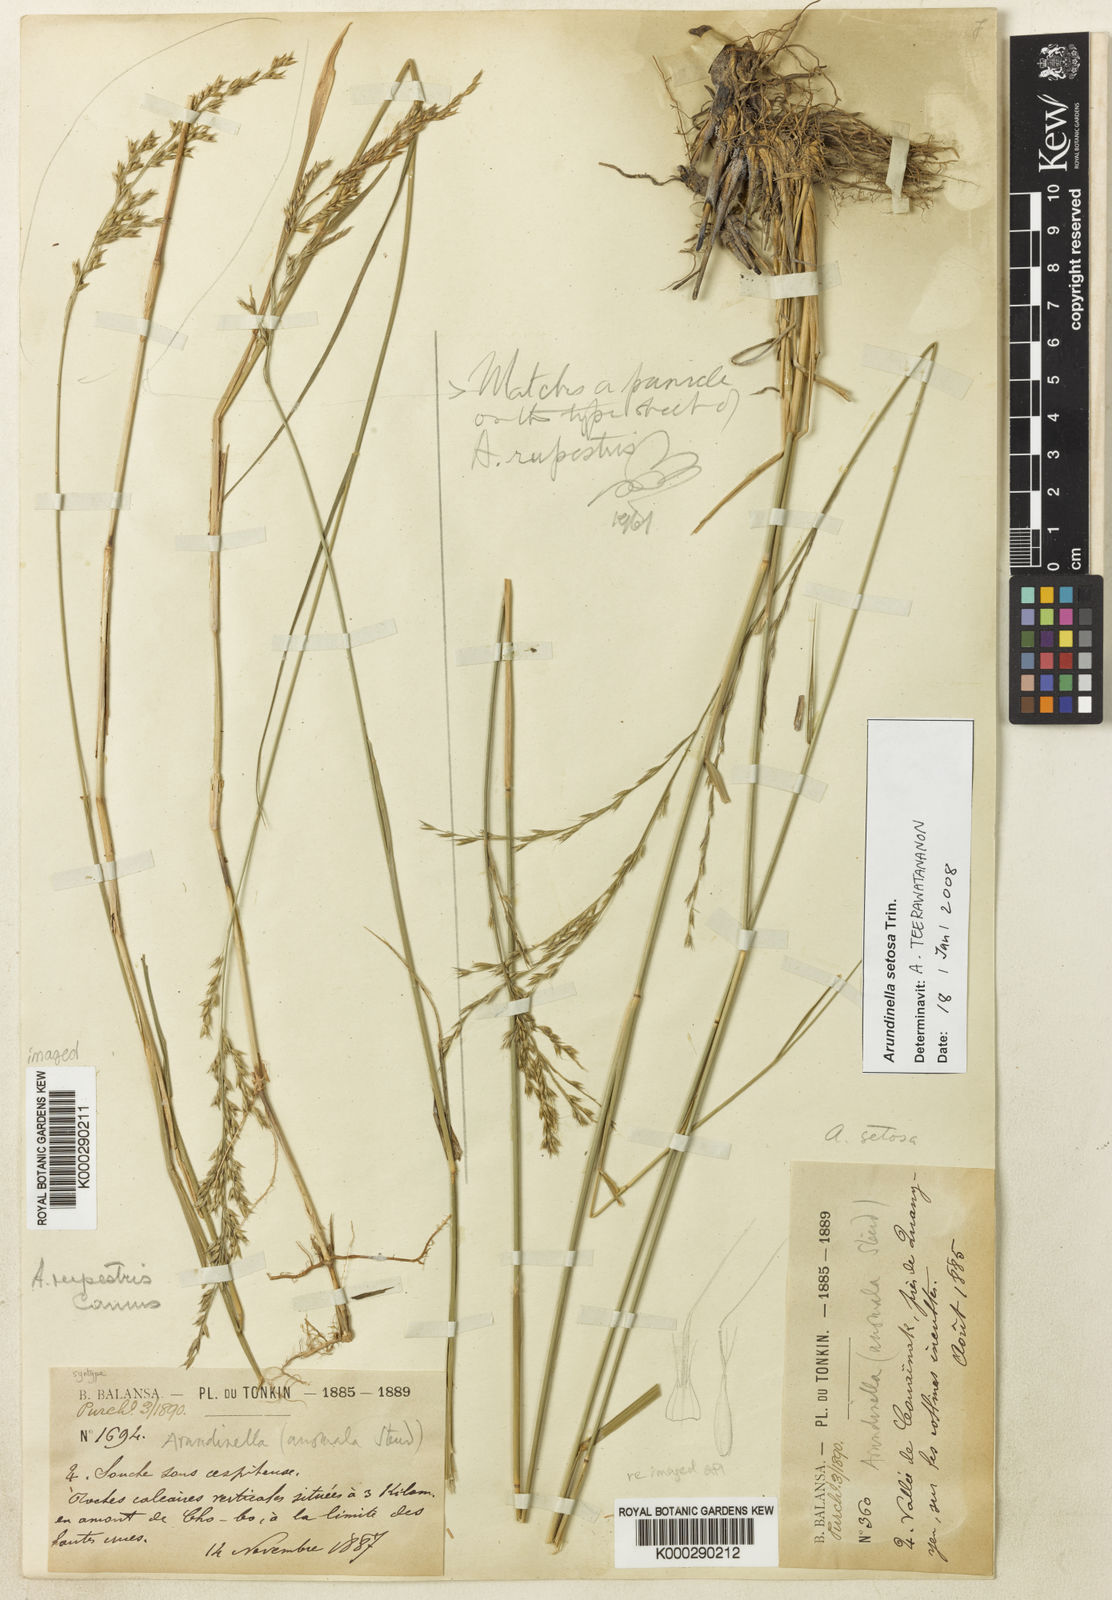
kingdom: Plantae
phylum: Tracheophyta
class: Liliopsida
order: Poales
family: Poaceae
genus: Arundinella
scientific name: Arundinella rupestris
